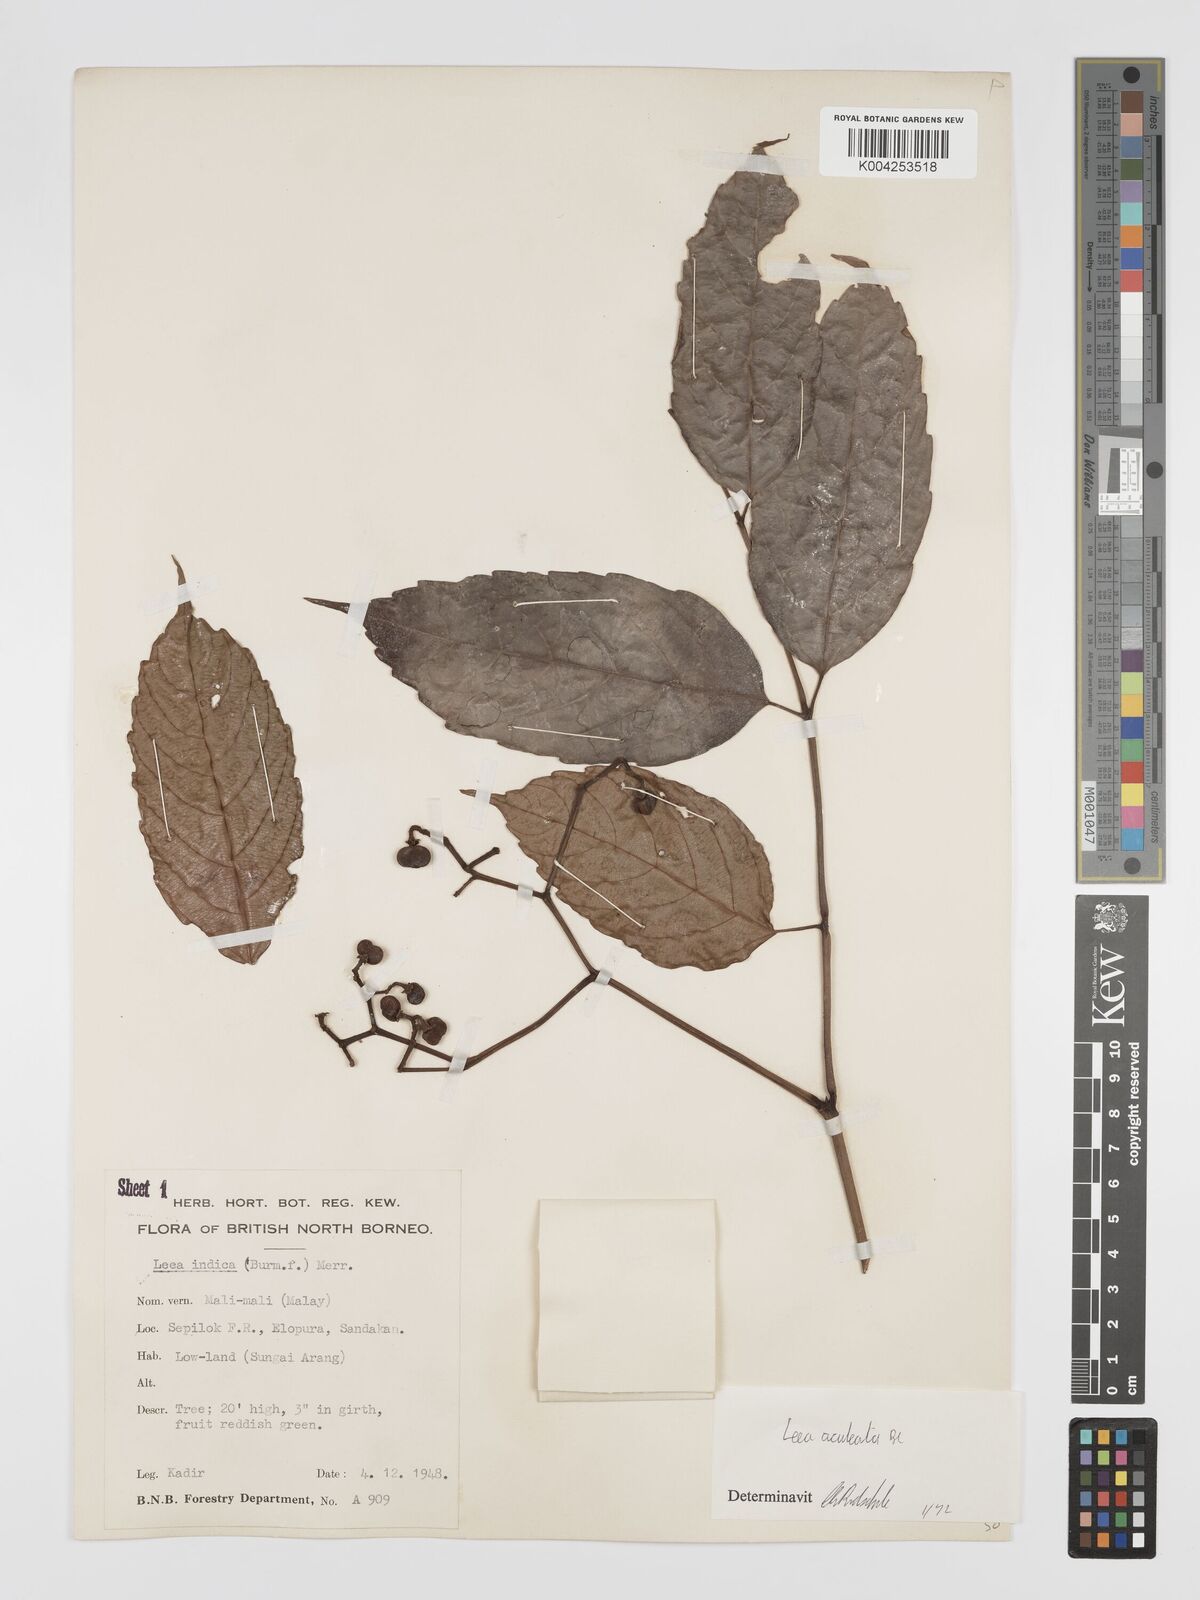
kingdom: Plantae
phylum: Tracheophyta
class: Magnoliopsida
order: Vitales
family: Vitaceae
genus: Leea
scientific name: Leea aculeata
